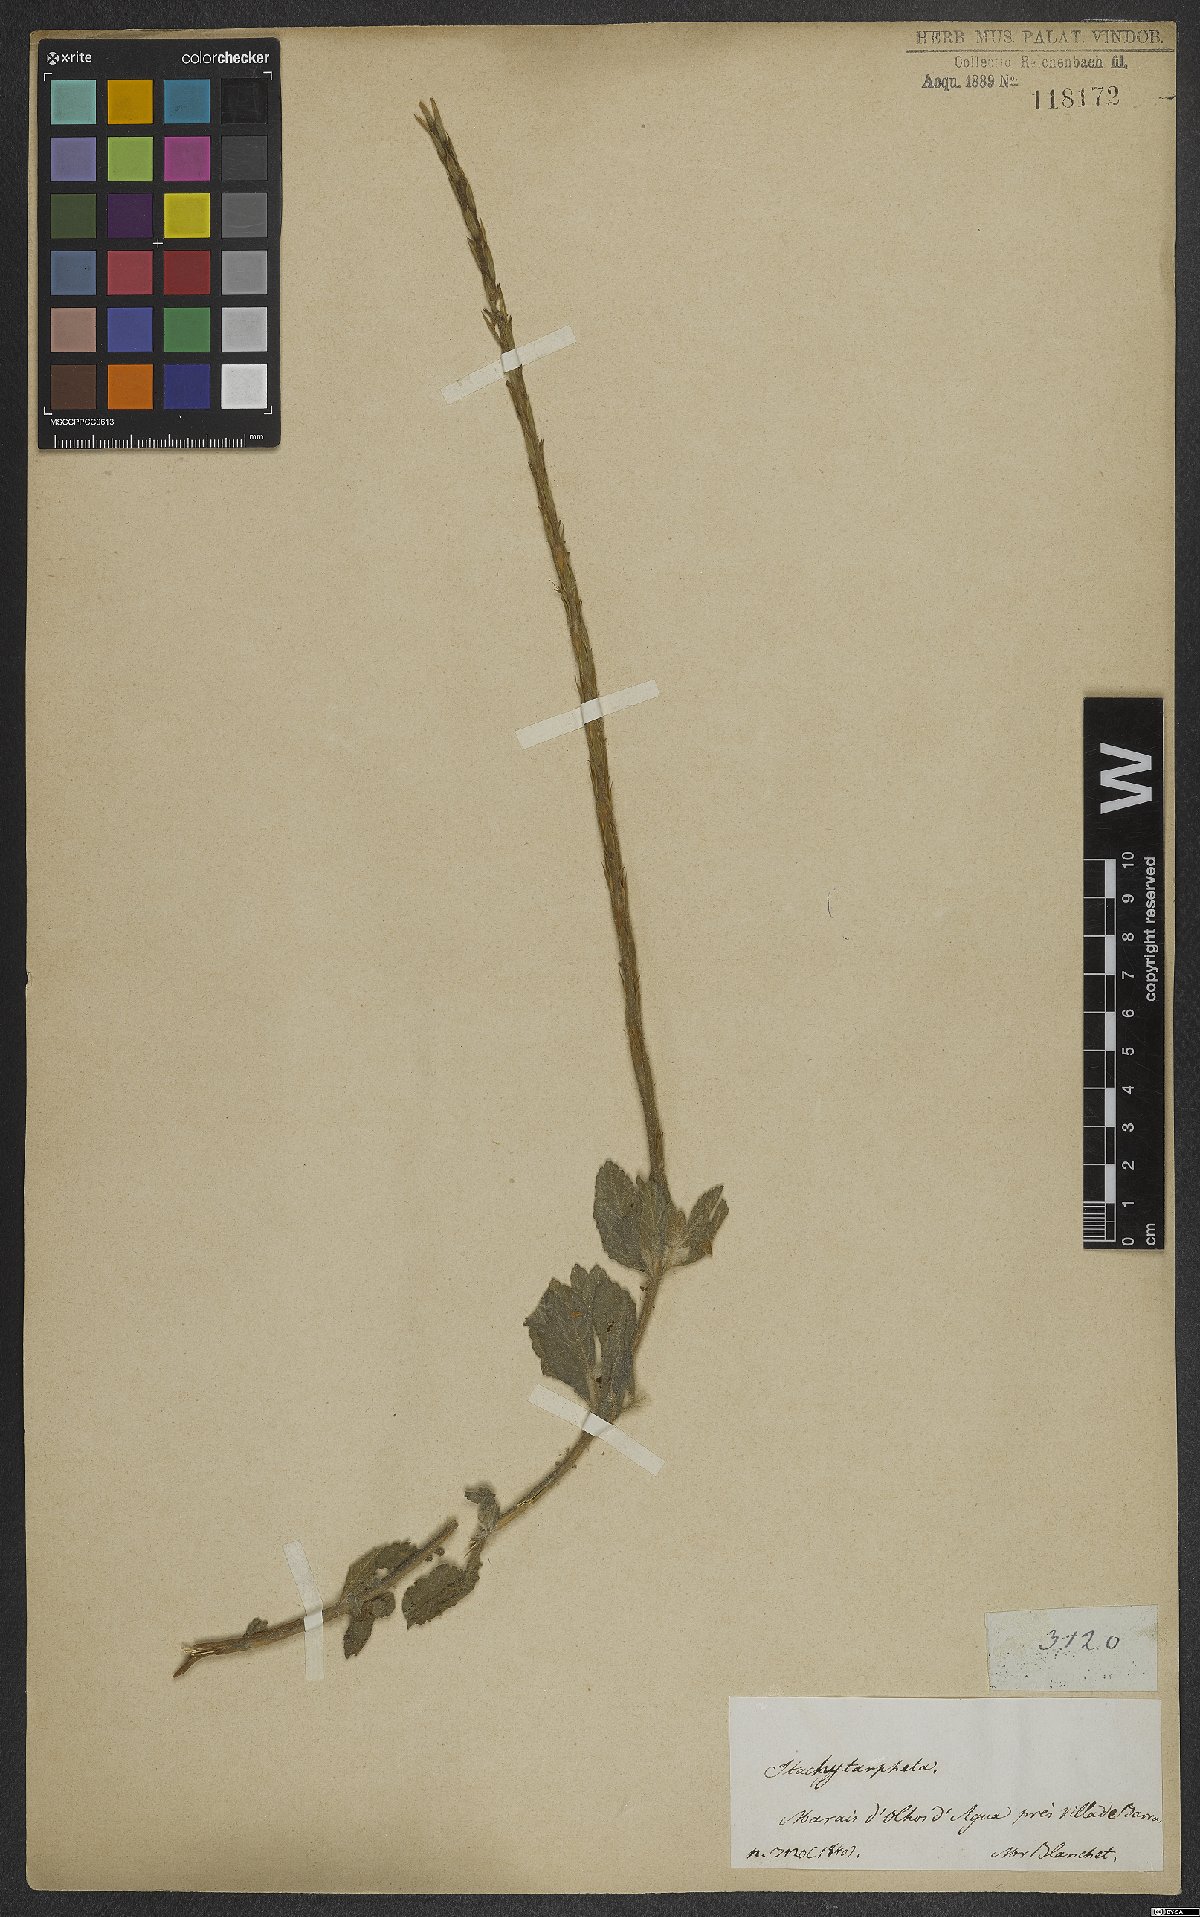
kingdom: Plantae
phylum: Tracheophyta
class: Magnoliopsida
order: Lamiales
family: Verbenaceae
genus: Stachytarpheta
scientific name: Stachytarpheta canescens
